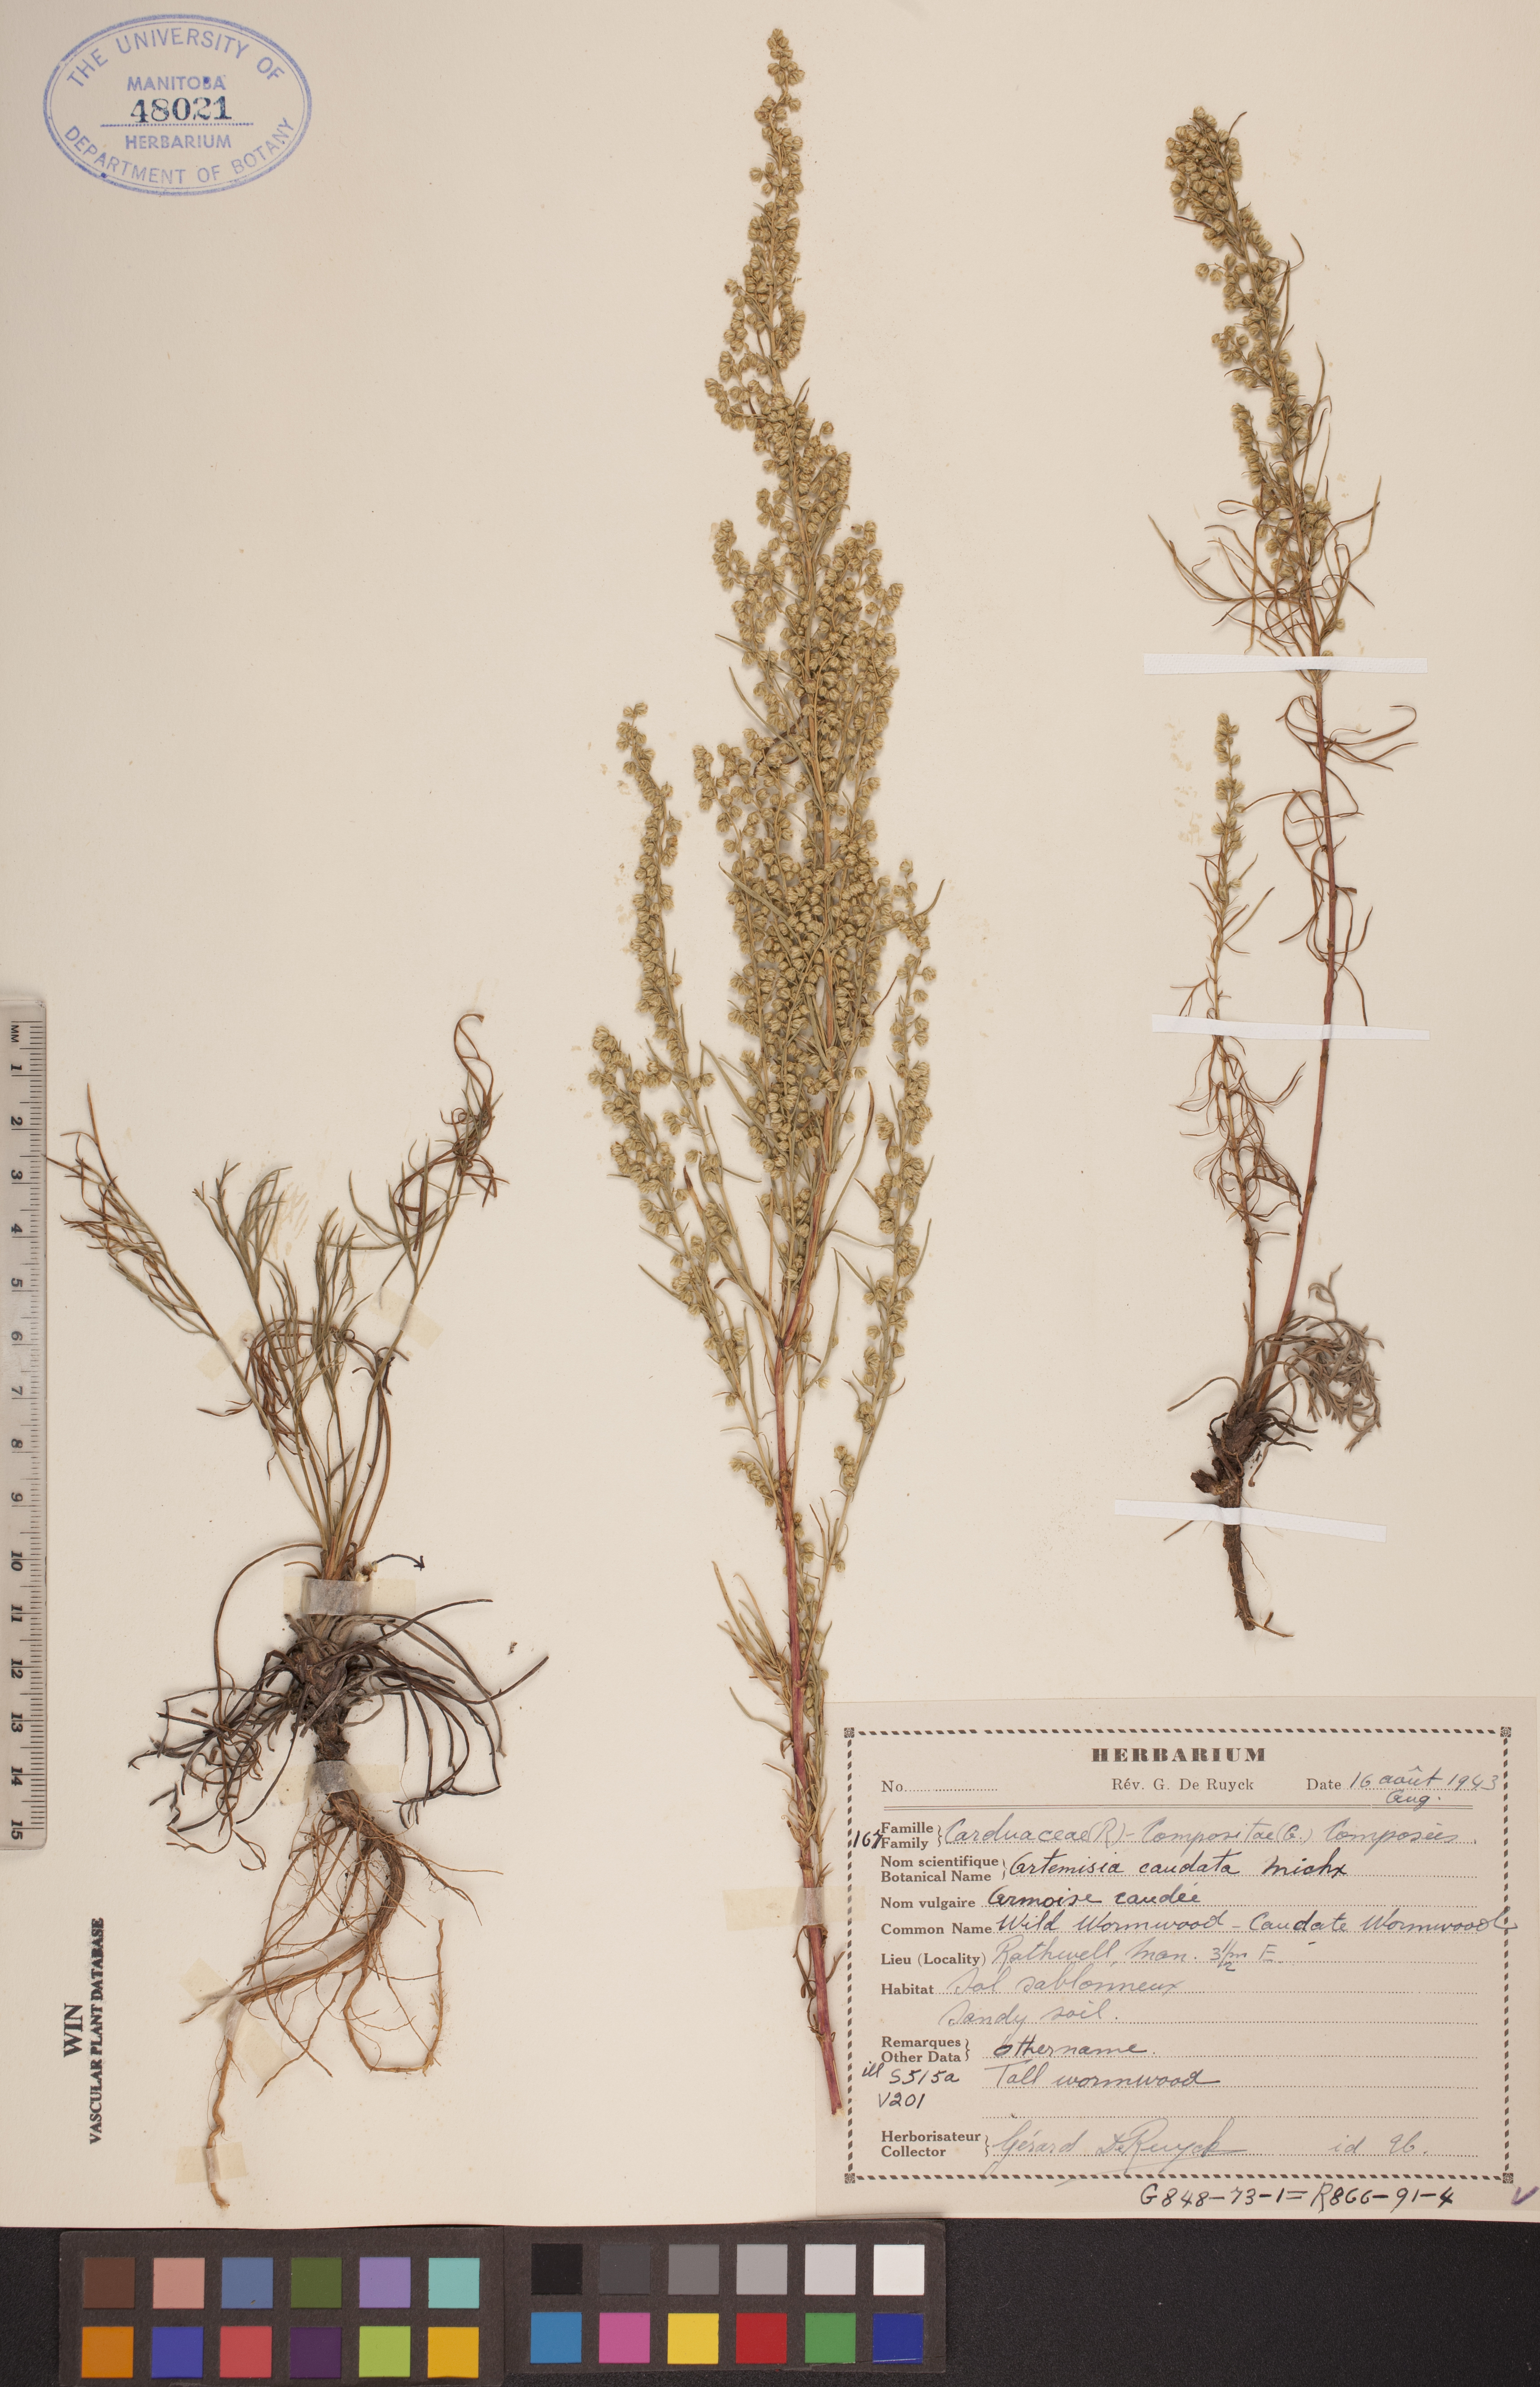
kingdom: Plantae
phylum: Tracheophyta
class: Magnoliopsida
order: Asterales
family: Asteraceae
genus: Artemisia
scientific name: Artemisia campestris
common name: Field wormwood
